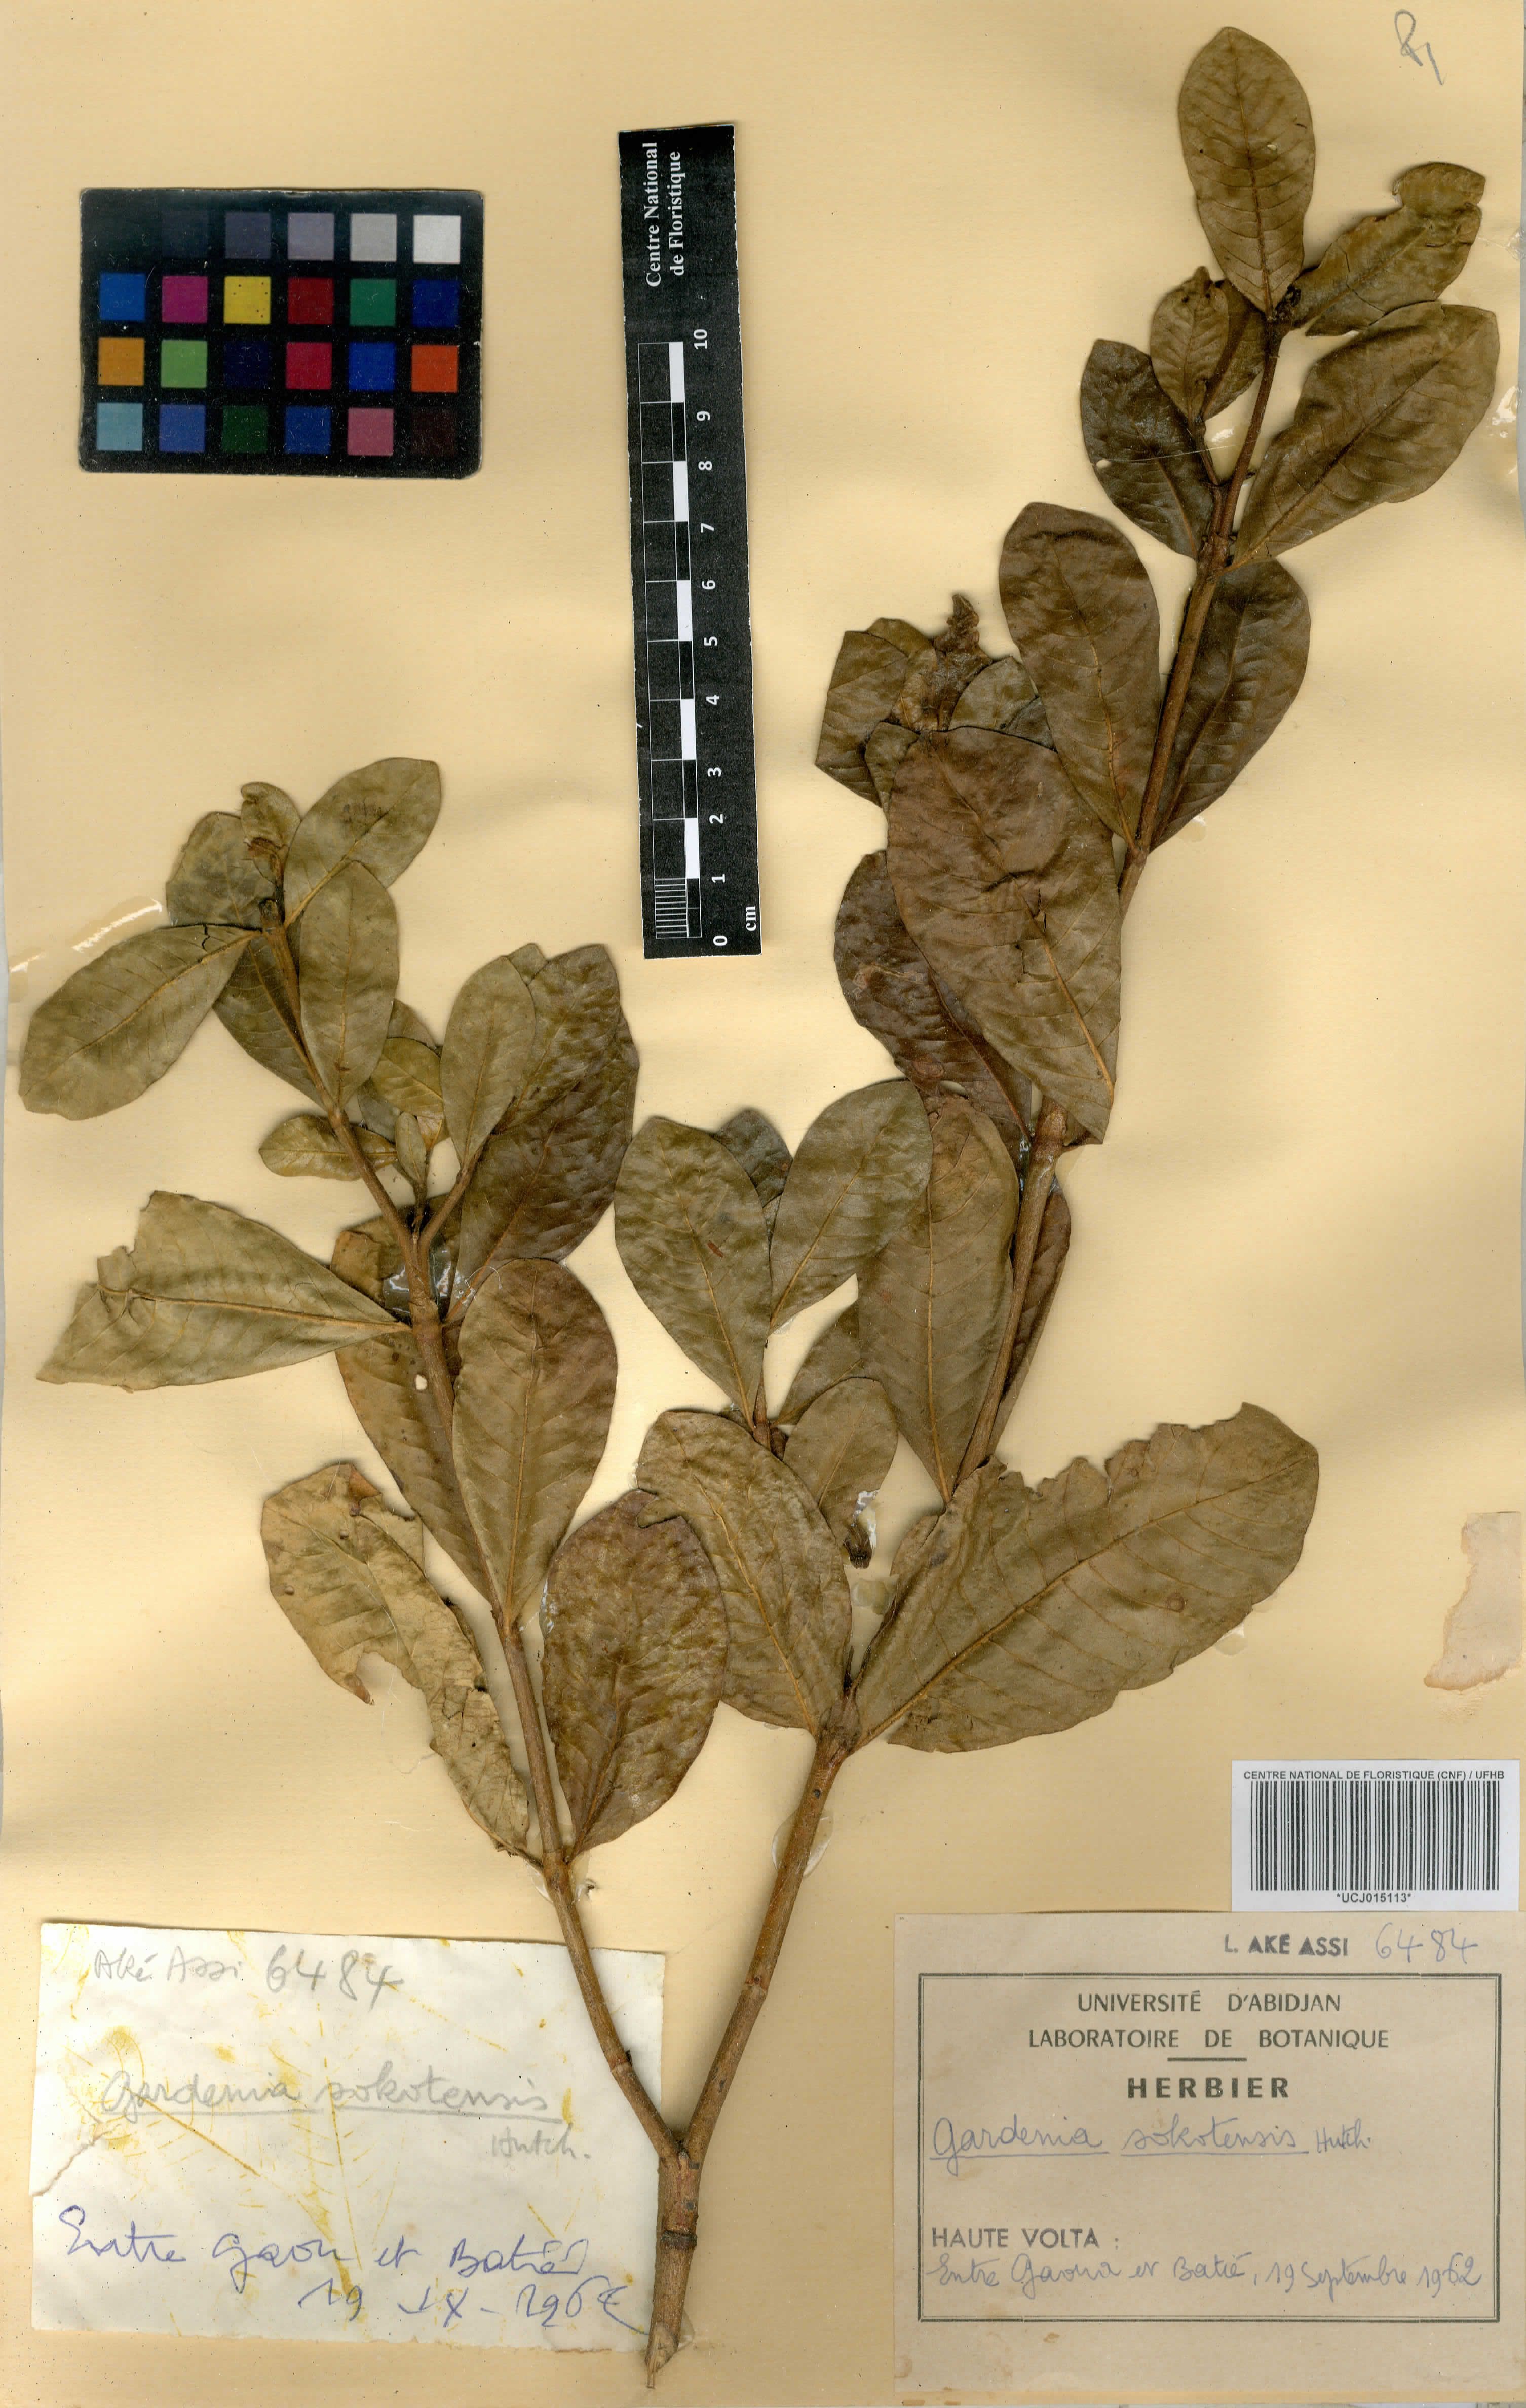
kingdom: Plantae
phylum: Tracheophyta
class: Magnoliopsida
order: Gentianales
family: Rubiaceae
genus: Gardenia
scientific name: Gardenia sokotensis
